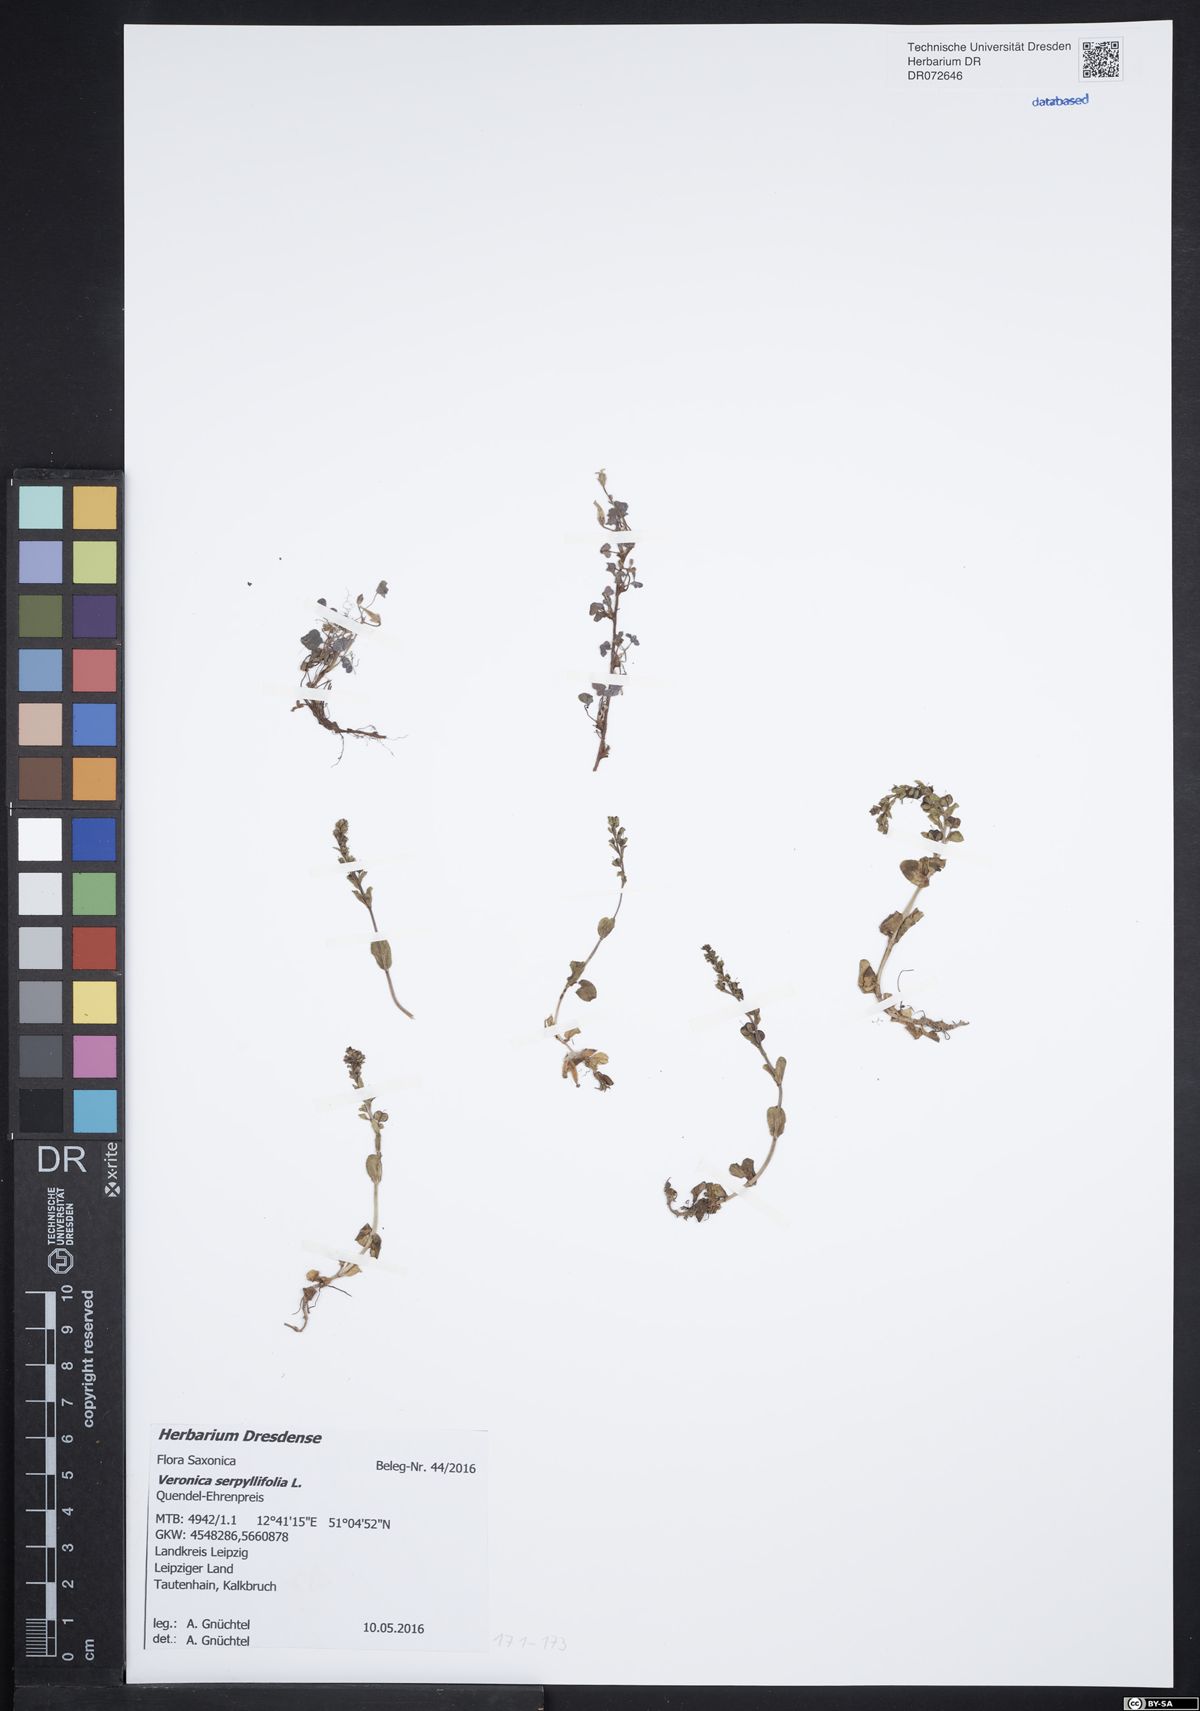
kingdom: Plantae
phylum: Tracheophyta
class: Magnoliopsida
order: Lamiales
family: Plantaginaceae
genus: Veronica
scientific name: Veronica serpyllifolia
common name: Thyme-leaved speedwell
